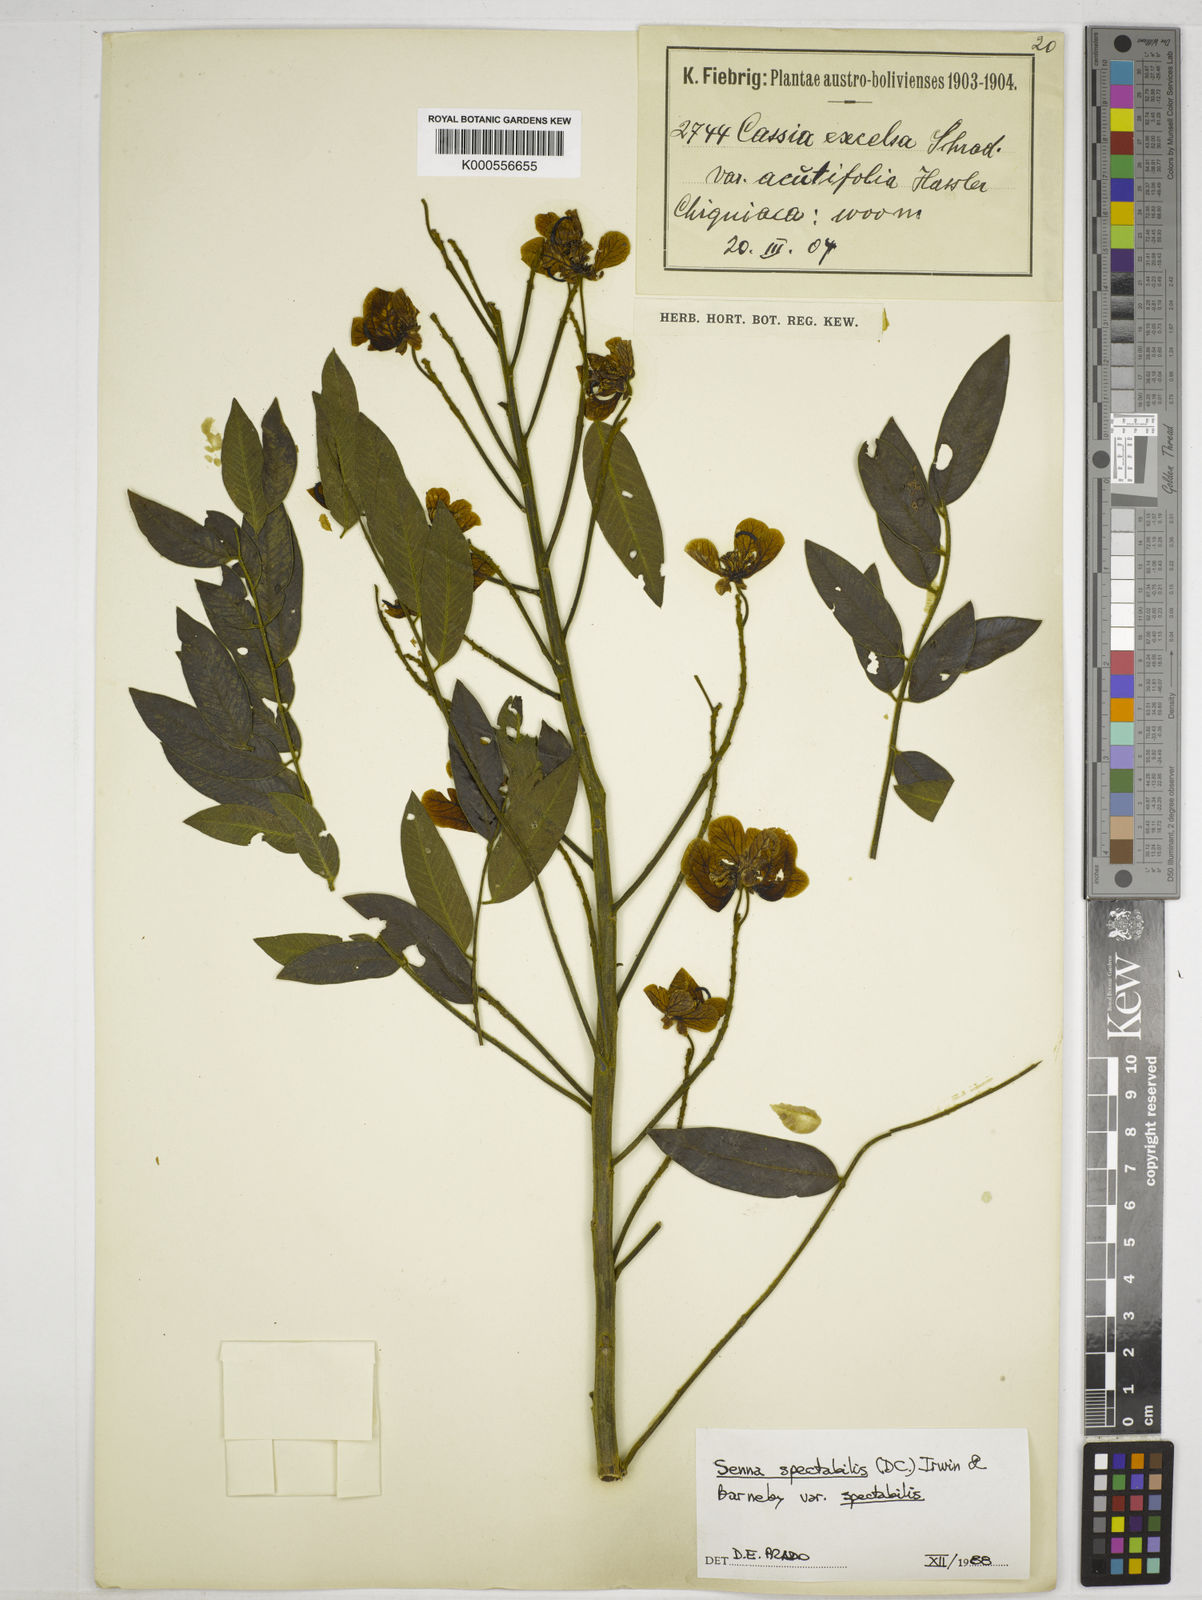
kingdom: Plantae
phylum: Tracheophyta
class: Magnoliopsida
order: Fabales
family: Fabaceae
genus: Senna
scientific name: Senna spectabilis
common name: Casia amarilla
